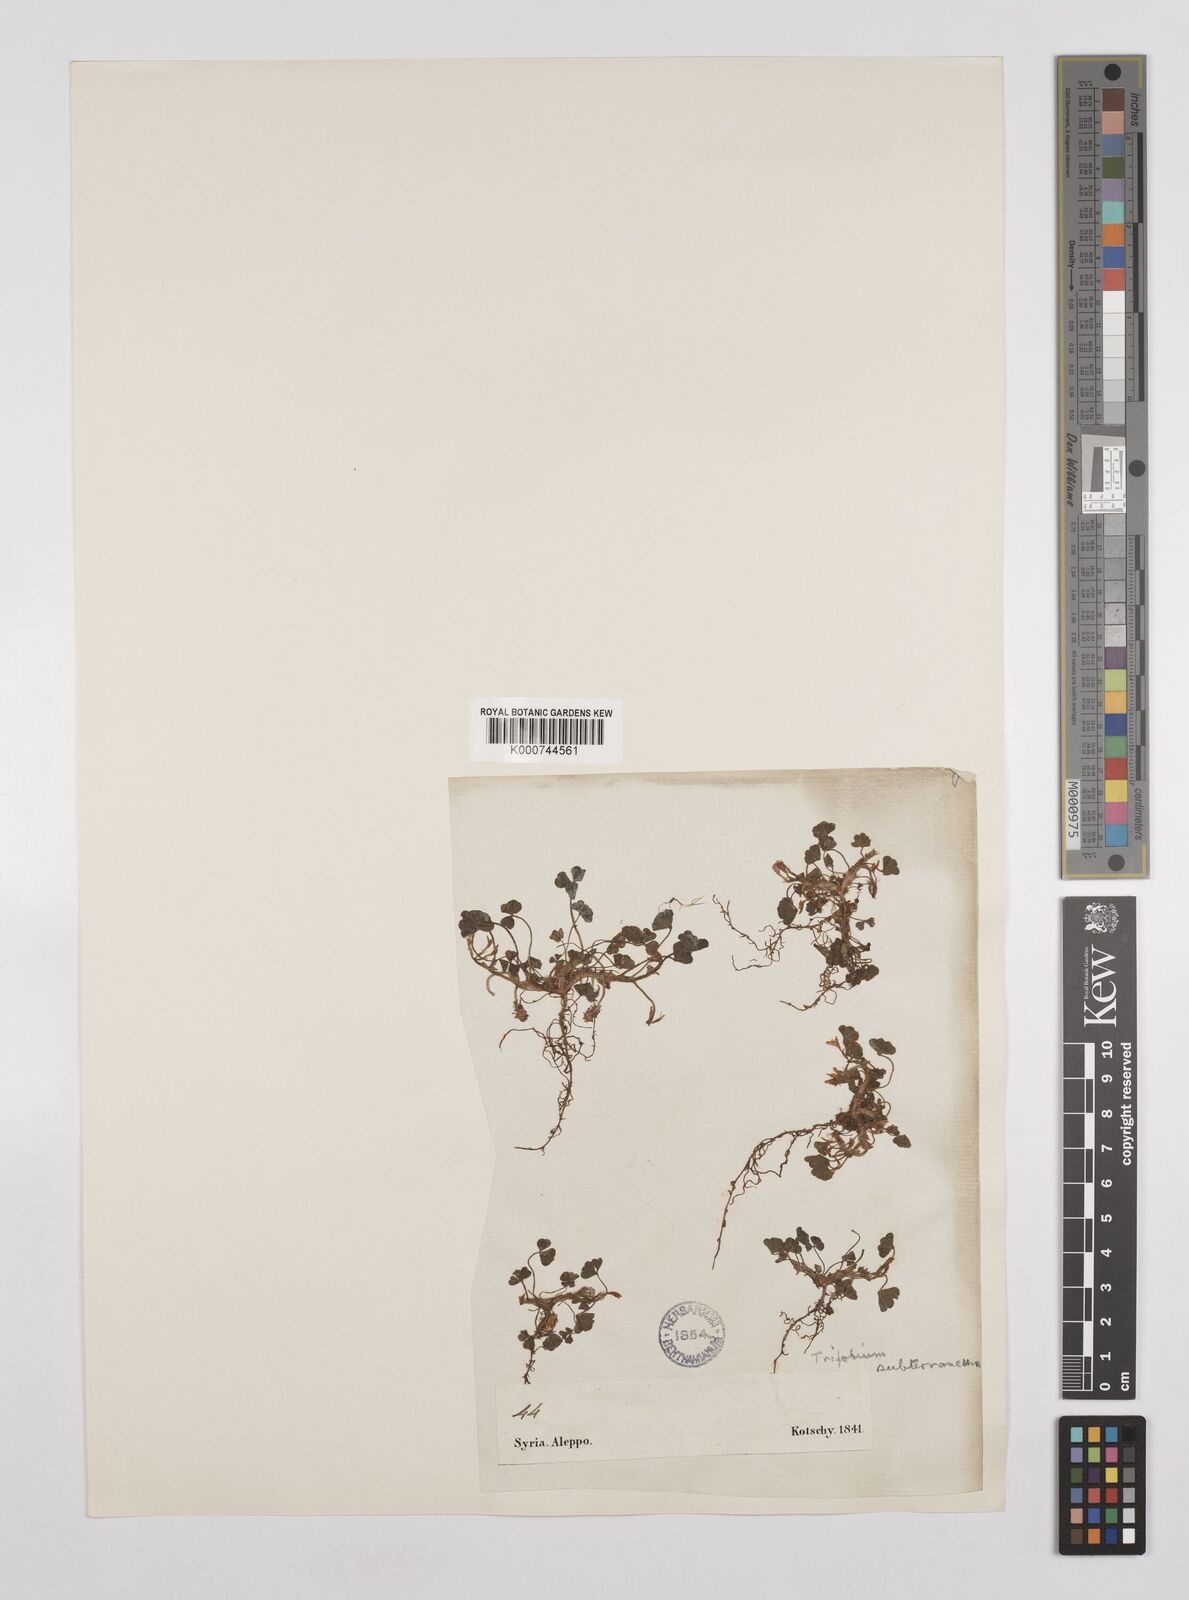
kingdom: Plantae
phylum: Tracheophyta
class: Magnoliopsida
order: Fabales
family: Fabaceae
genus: Trifolium
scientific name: Trifolium subterraneum
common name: Subterranean clover
